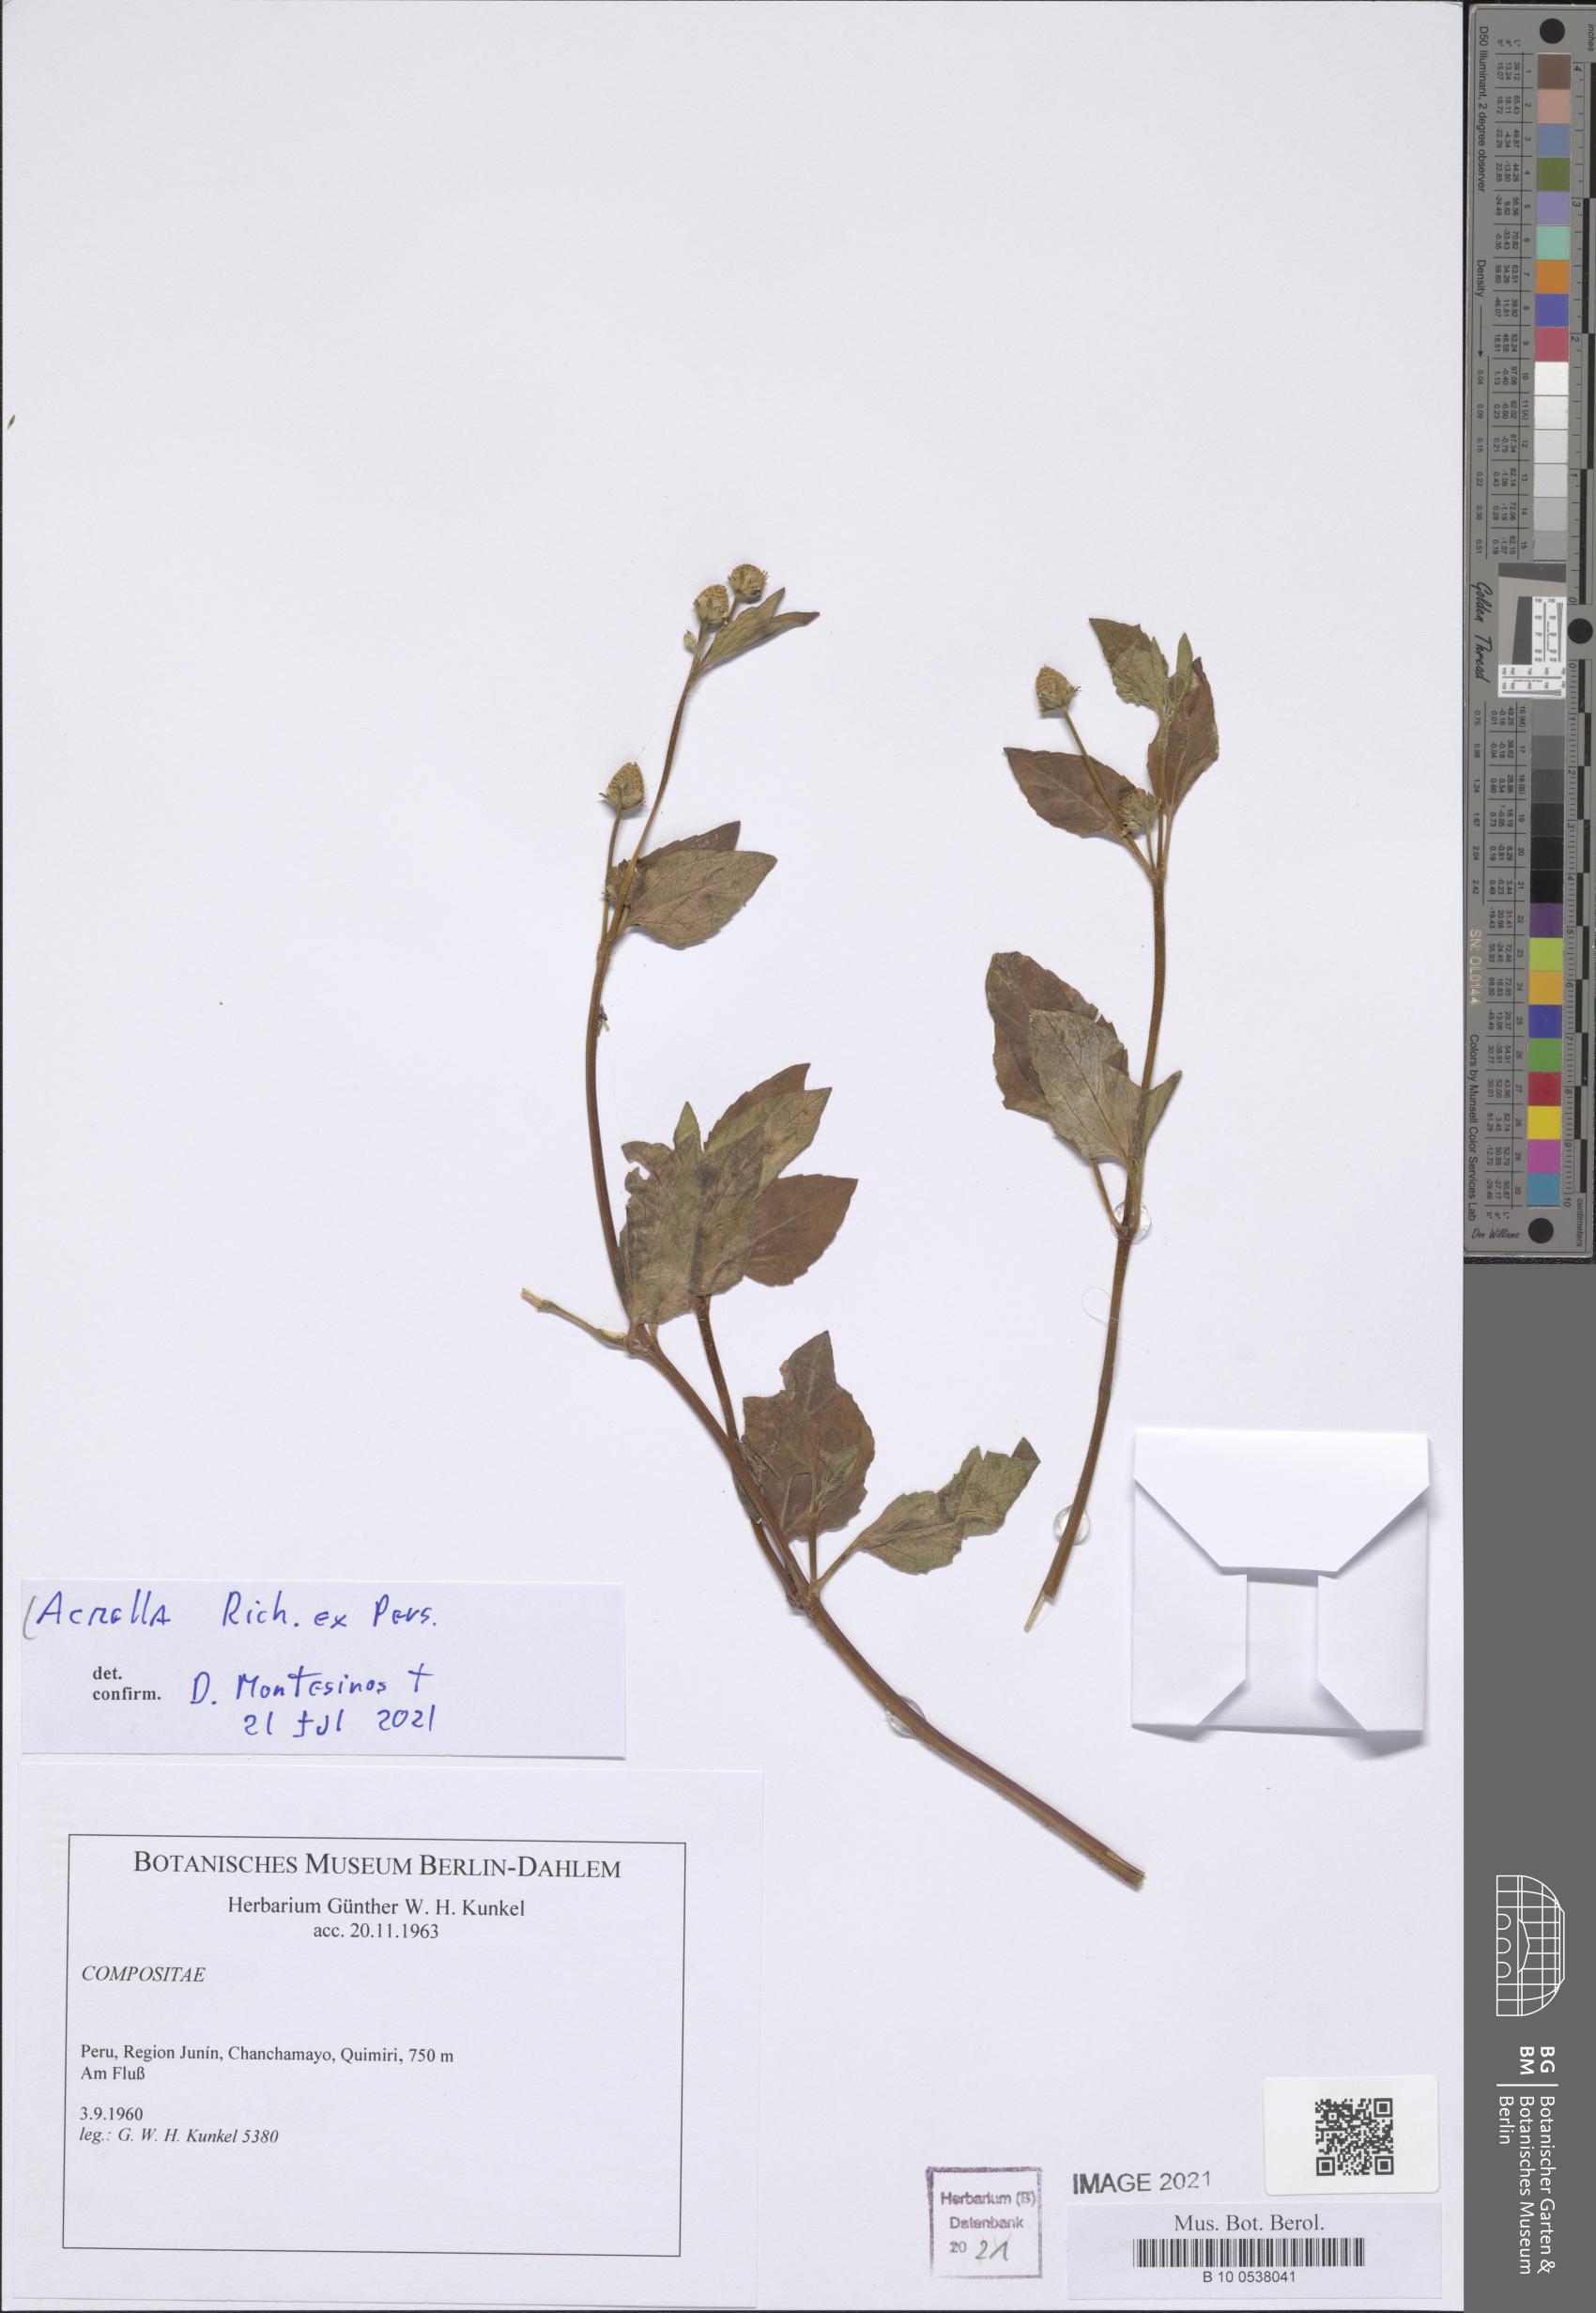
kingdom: Plantae
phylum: Tracheophyta
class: Magnoliopsida
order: Asterales
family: Asteraceae
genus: Acmella
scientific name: Acmella
